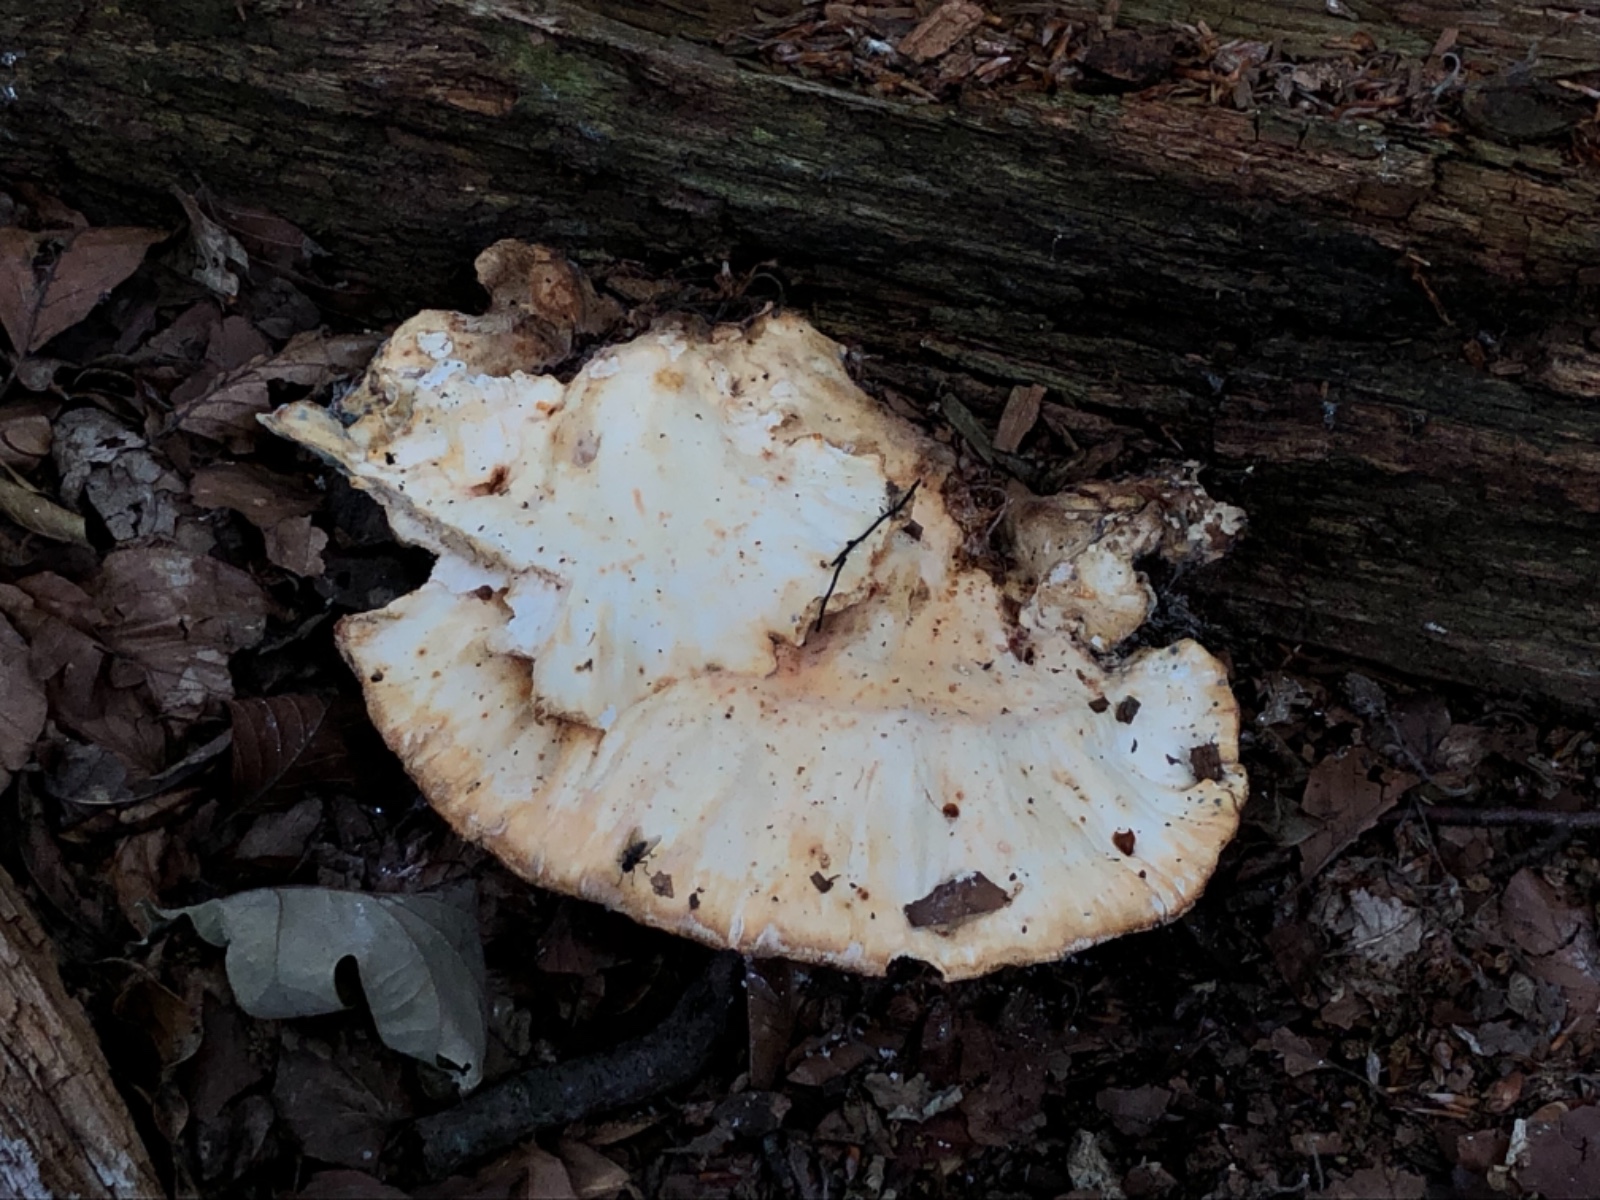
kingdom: Fungi
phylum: Basidiomycota
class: Agaricomycetes
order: Polyporales
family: Laetiporaceae
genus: Laetiporus
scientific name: Laetiporus sulphureus
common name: svovlporesvamp
